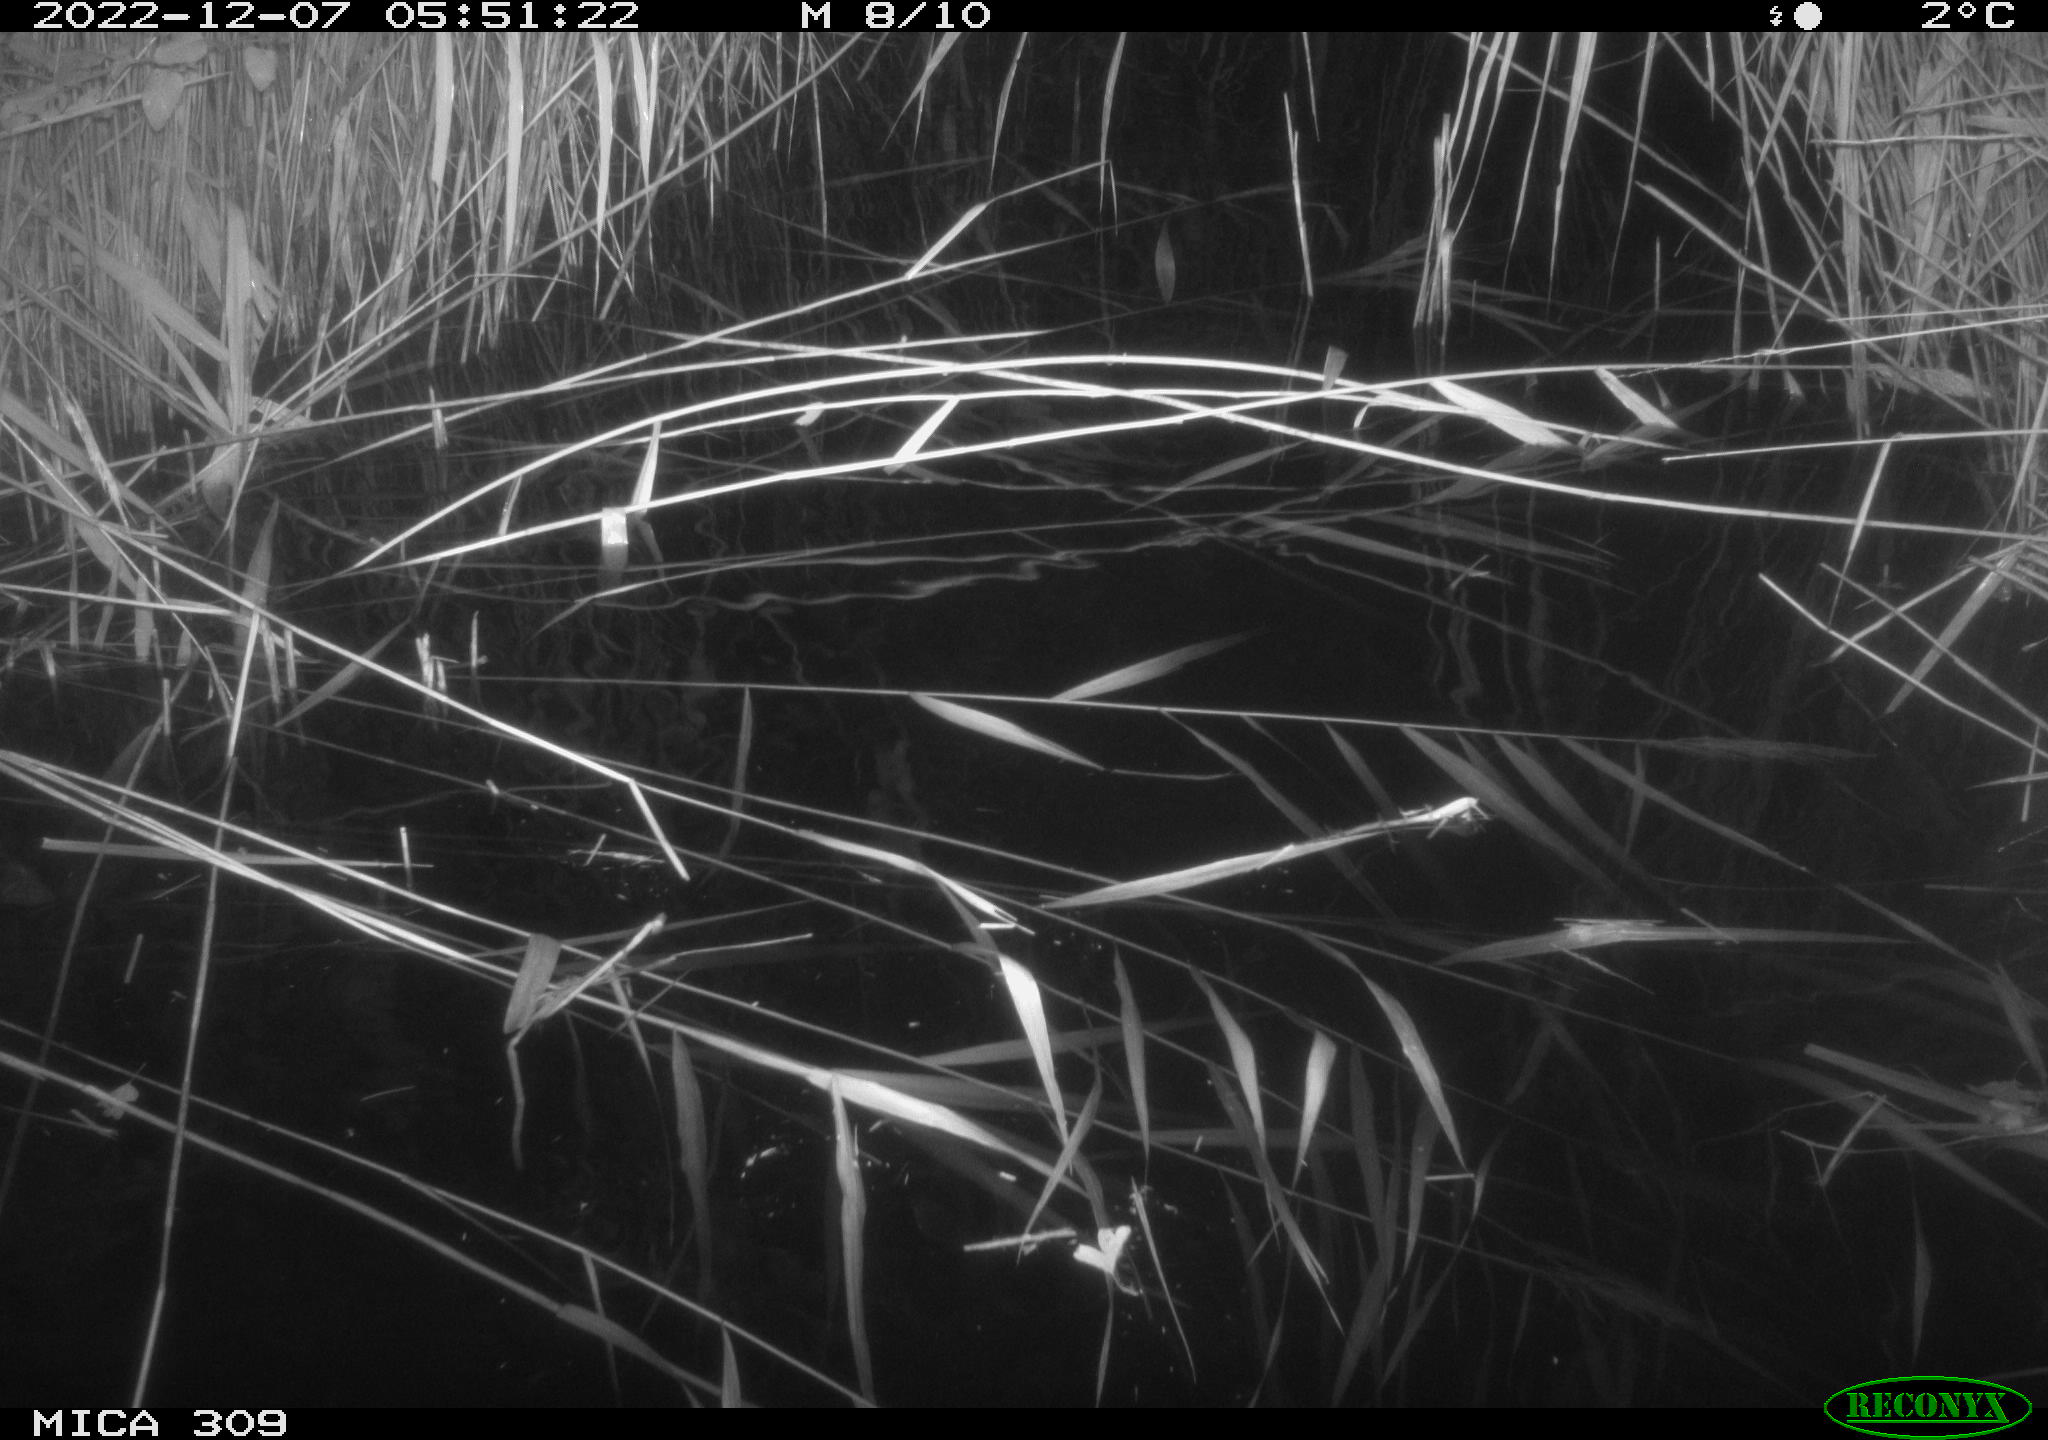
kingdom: Animalia
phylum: Chordata
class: Mammalia
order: Rodentia
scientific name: Rodentia
